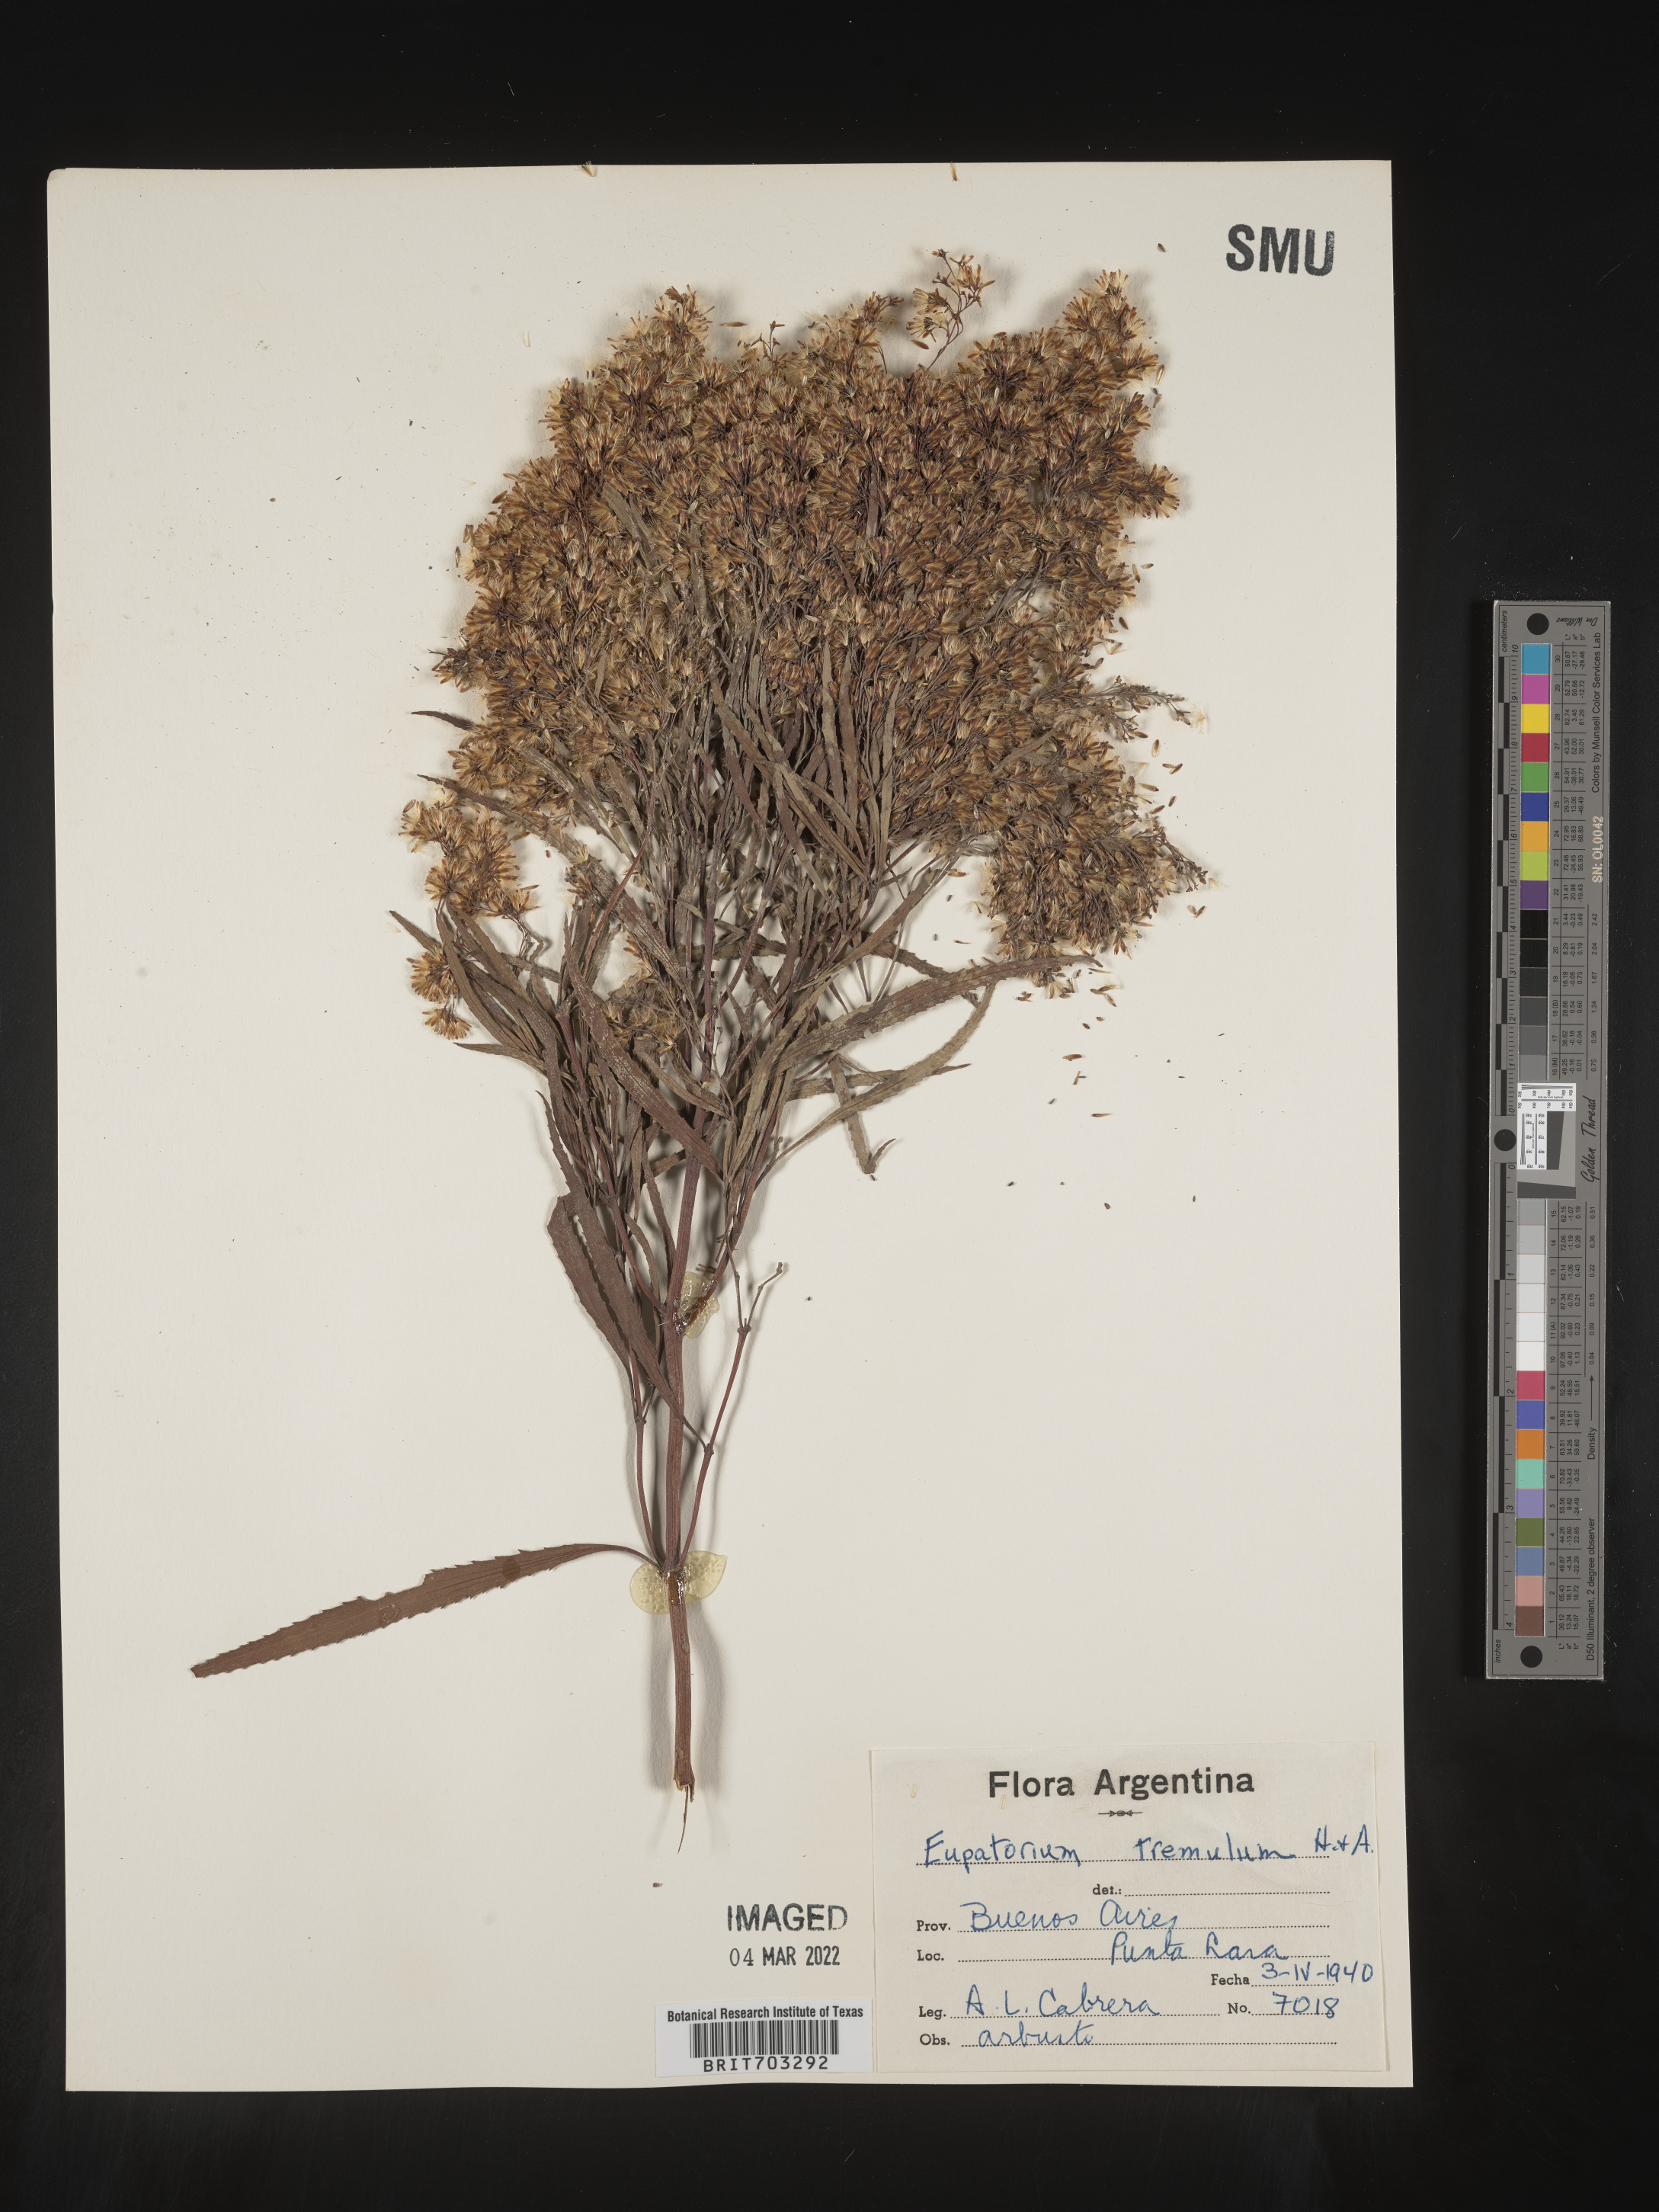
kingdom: Plantae
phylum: Tracheophyta
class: Magnoliopsida
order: Asterales
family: Asteraceae
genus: Eupatorium
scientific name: Eupatorium
